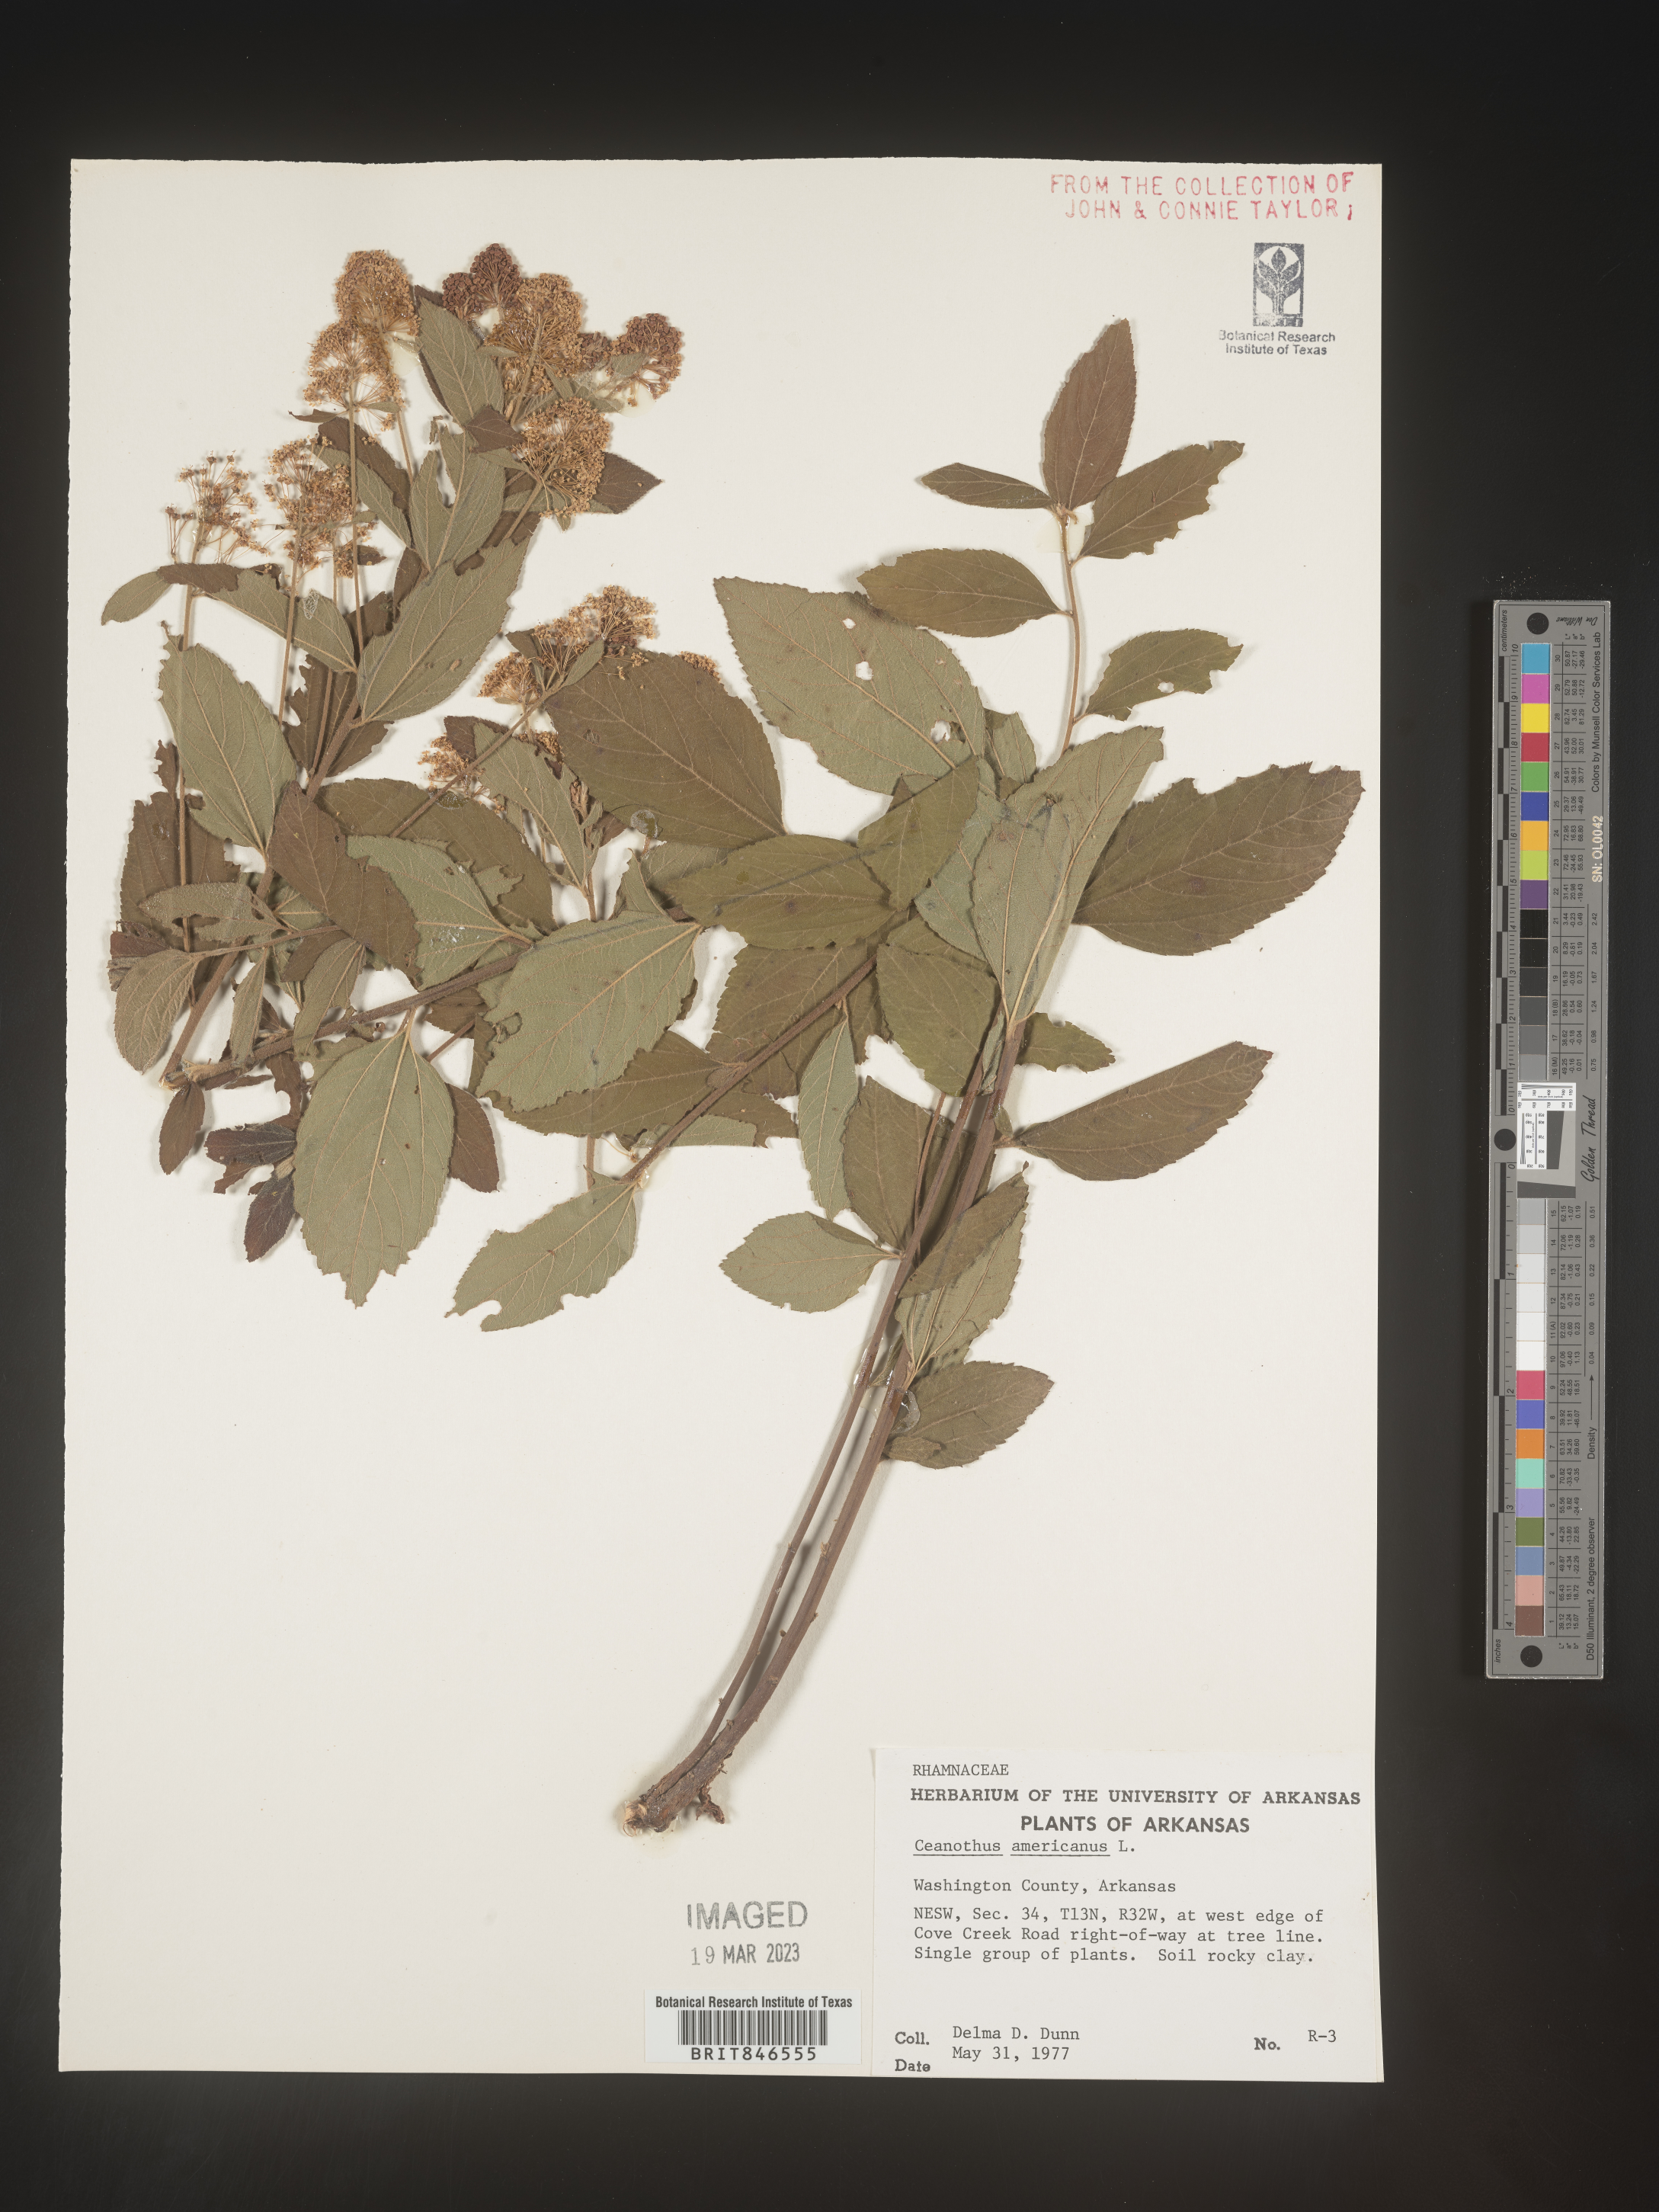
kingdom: Plantae
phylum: Tracheophyta
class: Magnoliopsida
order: Rosales
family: Rhamnaceae
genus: Ceanothus
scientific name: Ceanothus americanus
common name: Redroot
